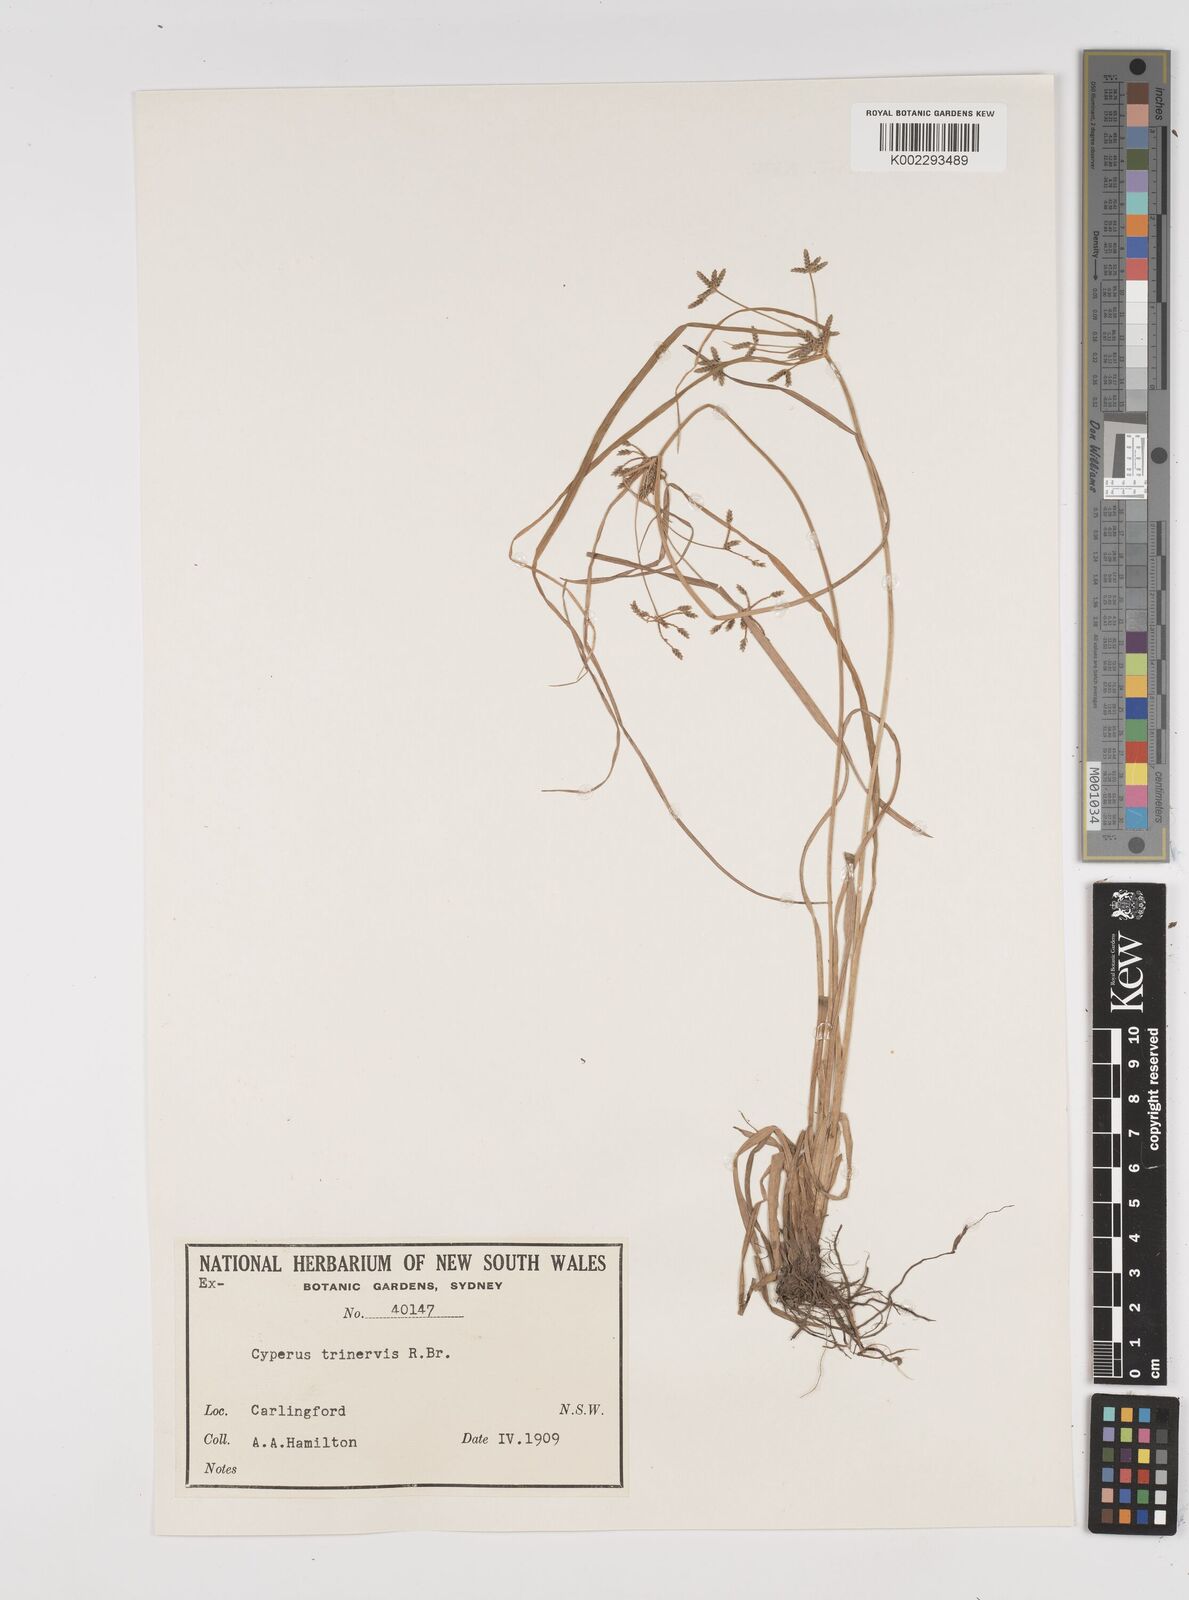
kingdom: Plantae
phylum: Tracheophyta
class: Liliopsida
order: Poales
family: Cyperaceae
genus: Cyperus
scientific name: Cyperus trinervis
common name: Australian flatsedge
